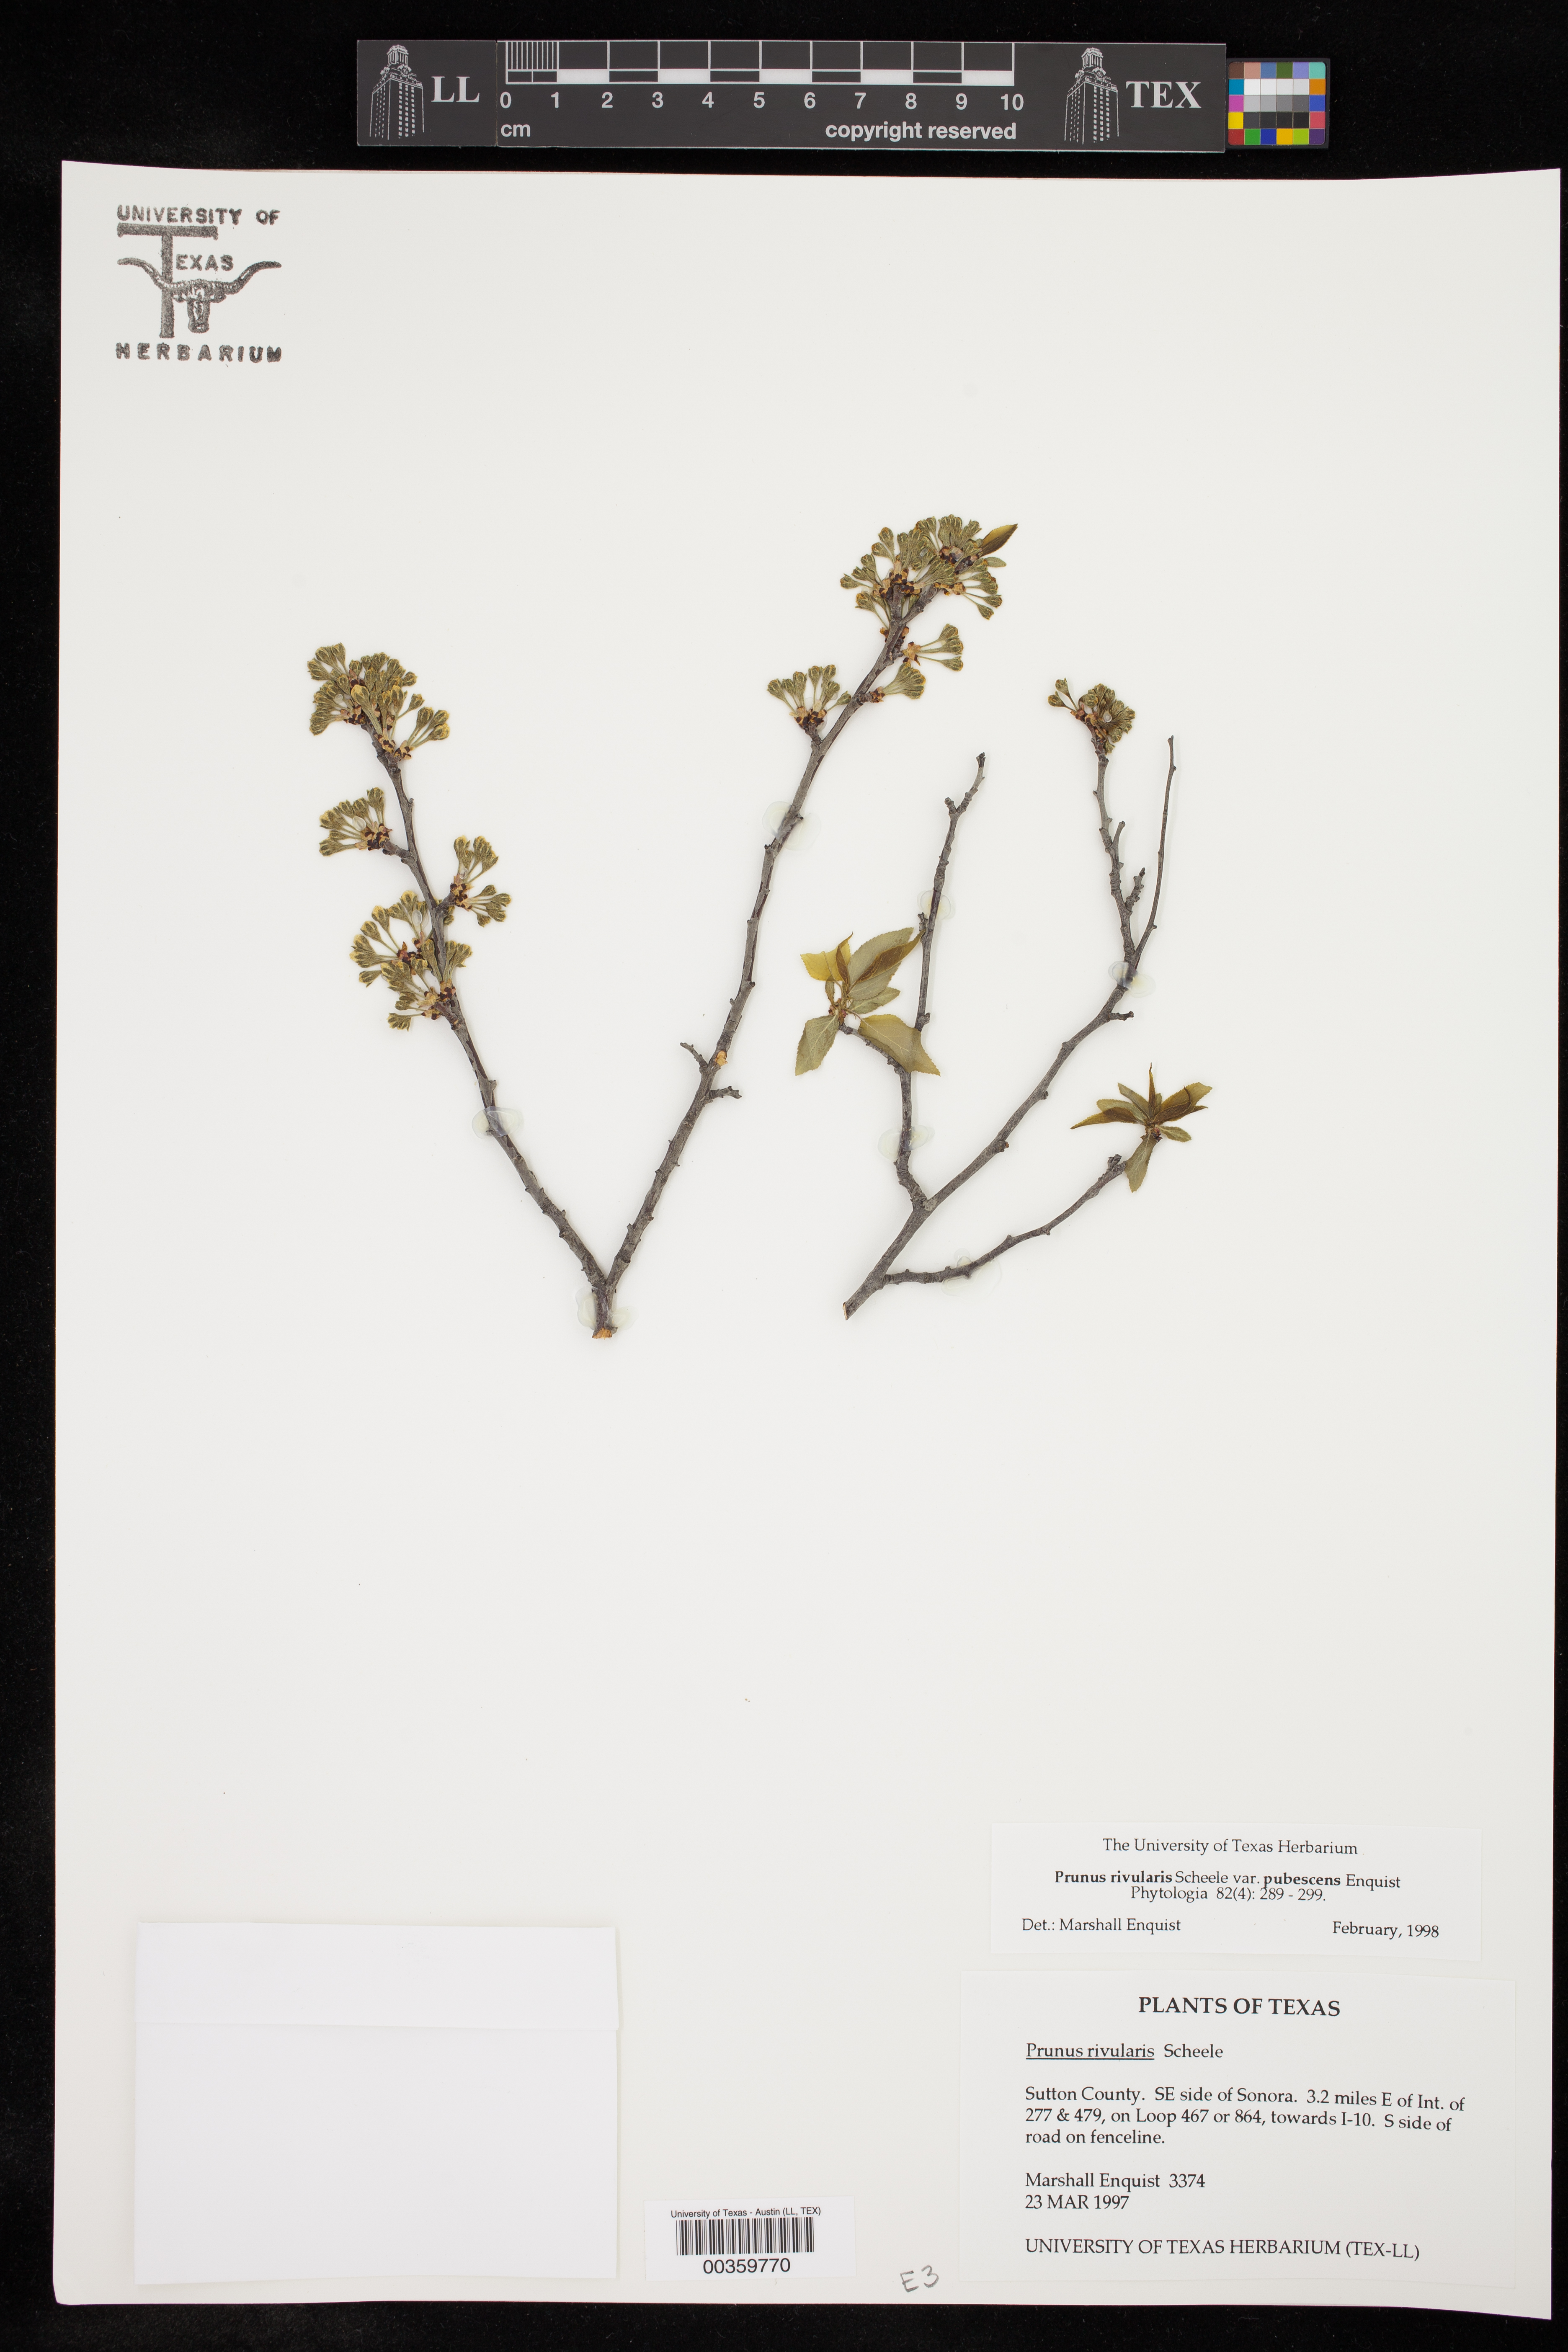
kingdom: Plantae
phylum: Tracheophyta
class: Magnoliopsida
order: Rosales
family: Rosaceae
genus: Prunus
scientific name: Prunus rivularis
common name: Creek plum
